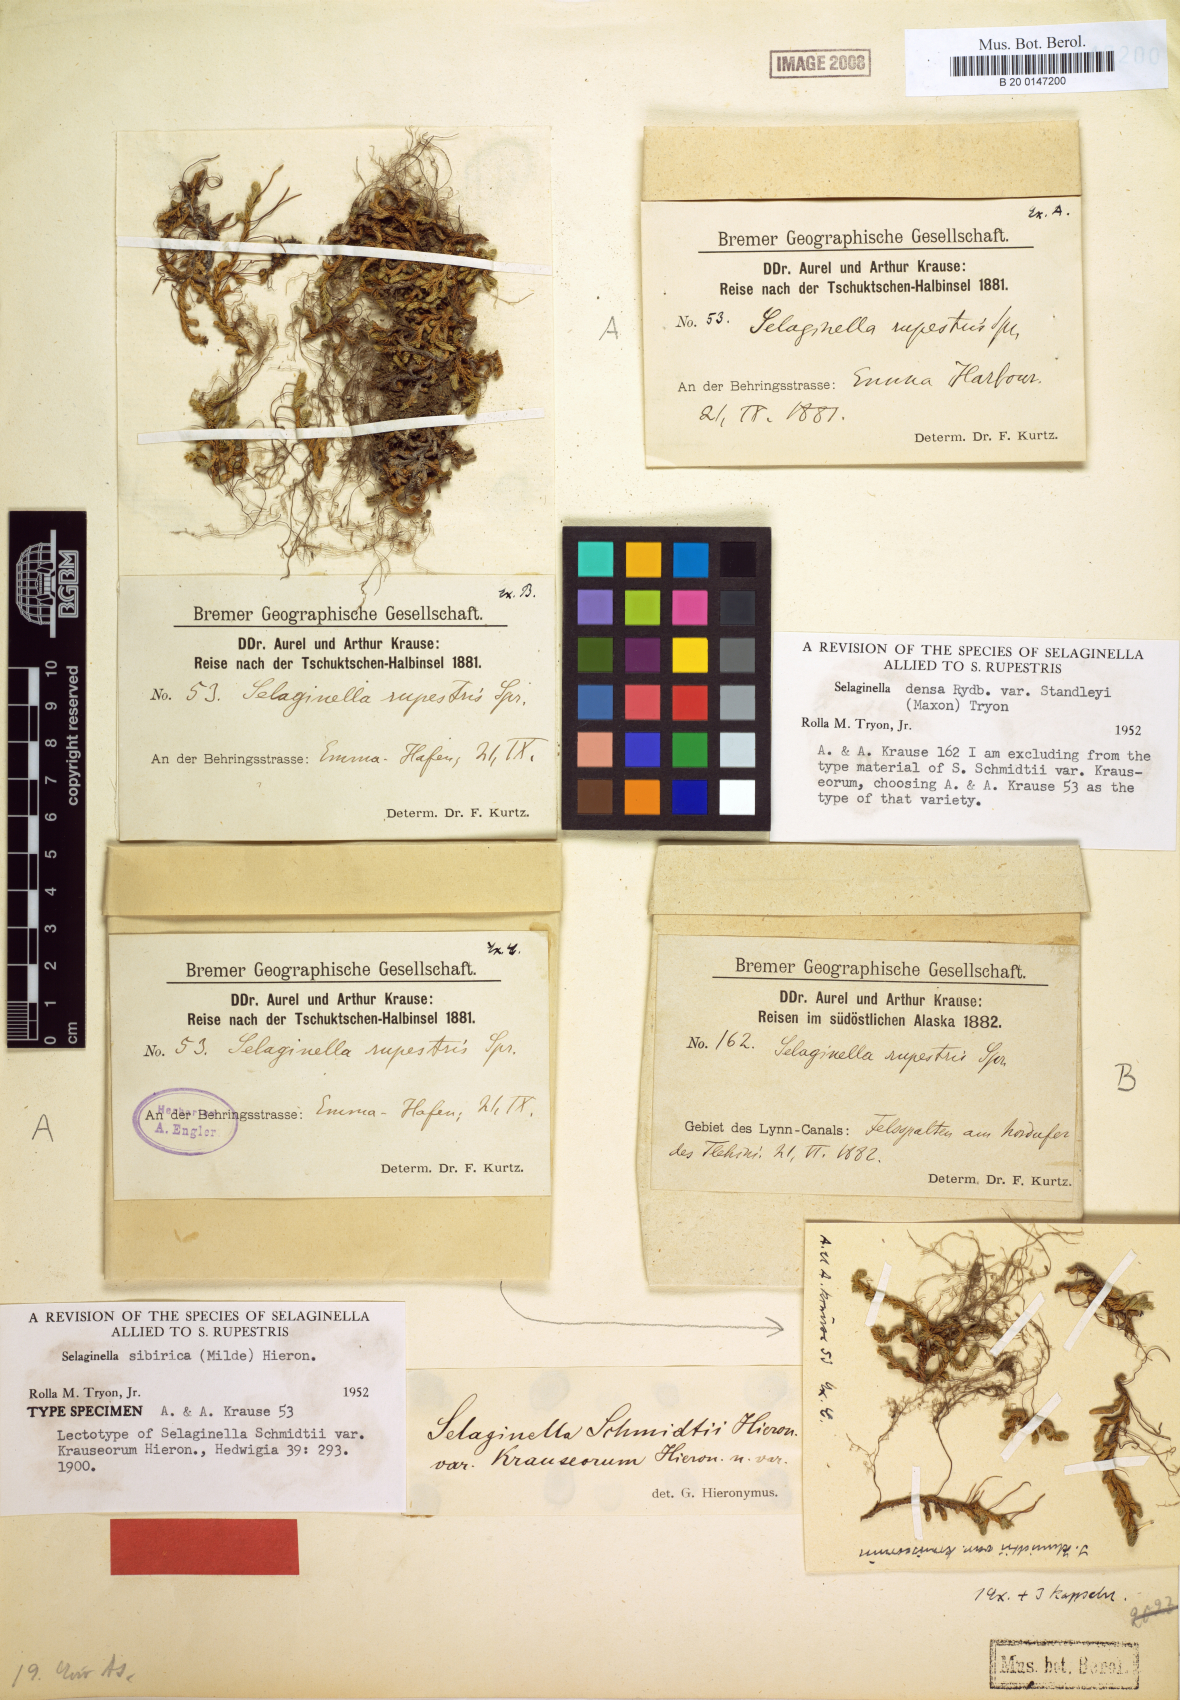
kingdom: Plantae
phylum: Tracheophyta
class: Lycopodiopsida
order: Selaginellales
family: Selaginellaceae
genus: Selaginella
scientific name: Selaginella sibirica
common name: Siberian spikemoss
